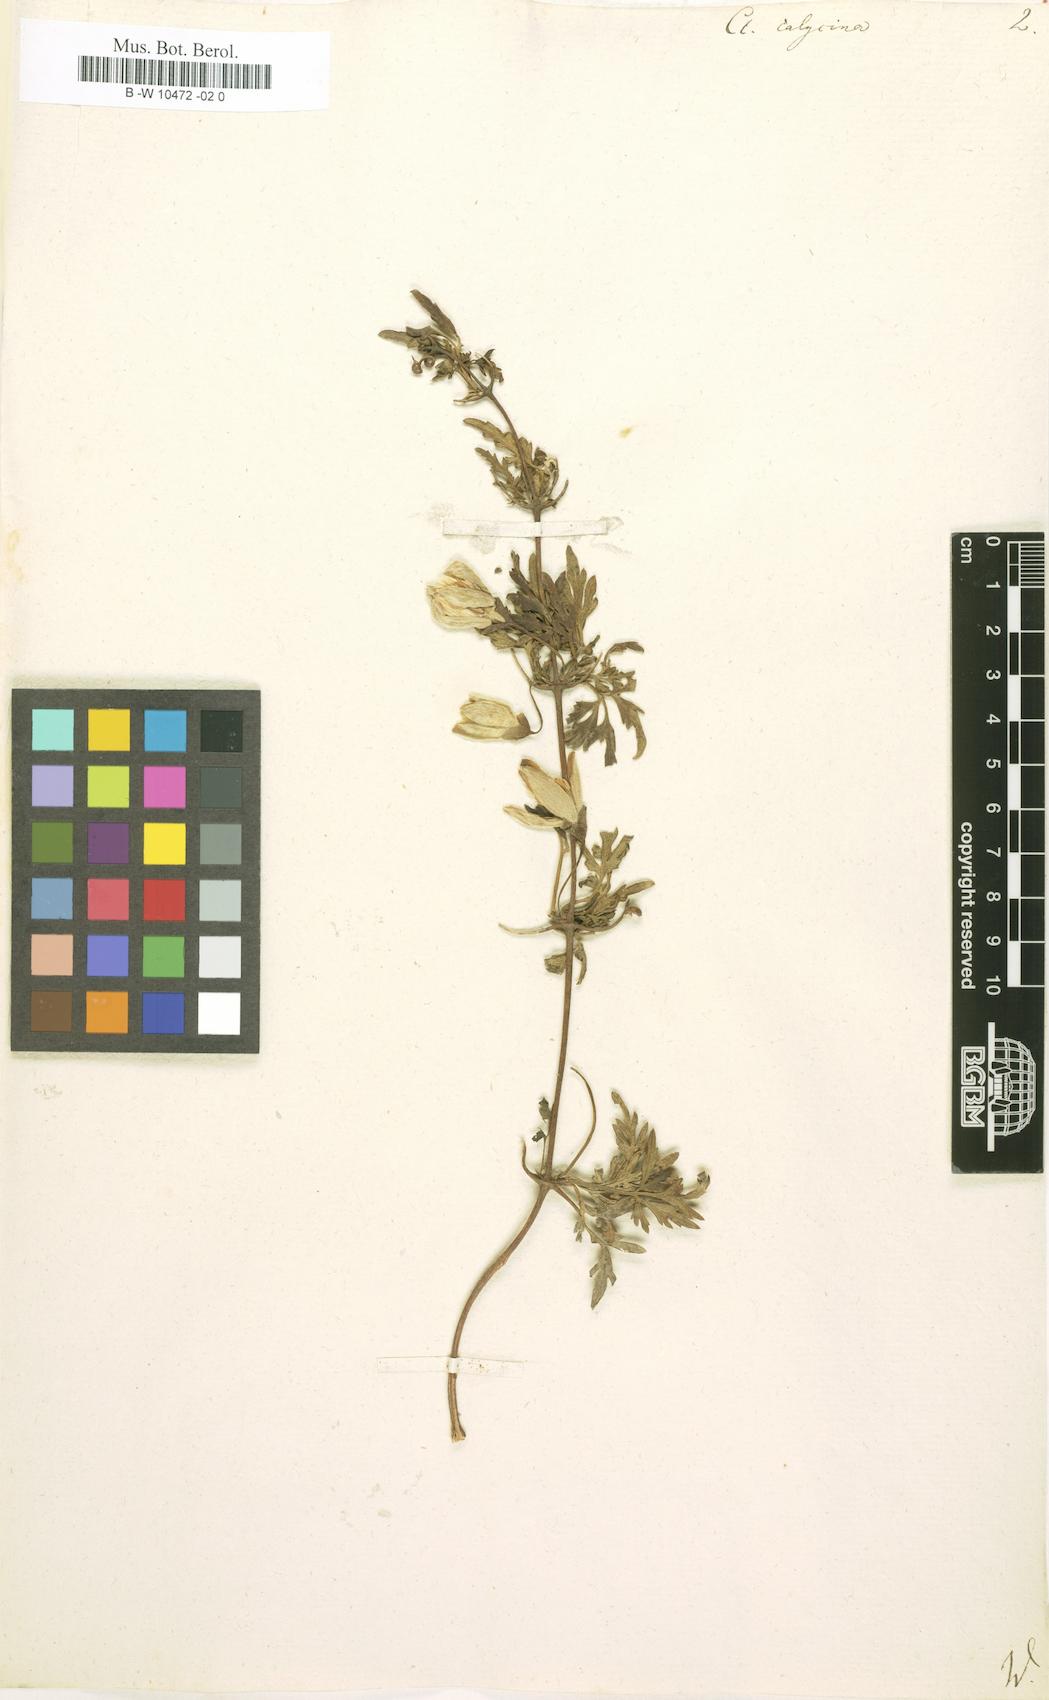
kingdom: Plantae
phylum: Tracheophyta
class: Magnoliopsida
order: Ranunculales
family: Ranunculaceae
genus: Clematis
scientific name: Clematis cirrhosa
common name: Early virgin's-bower
